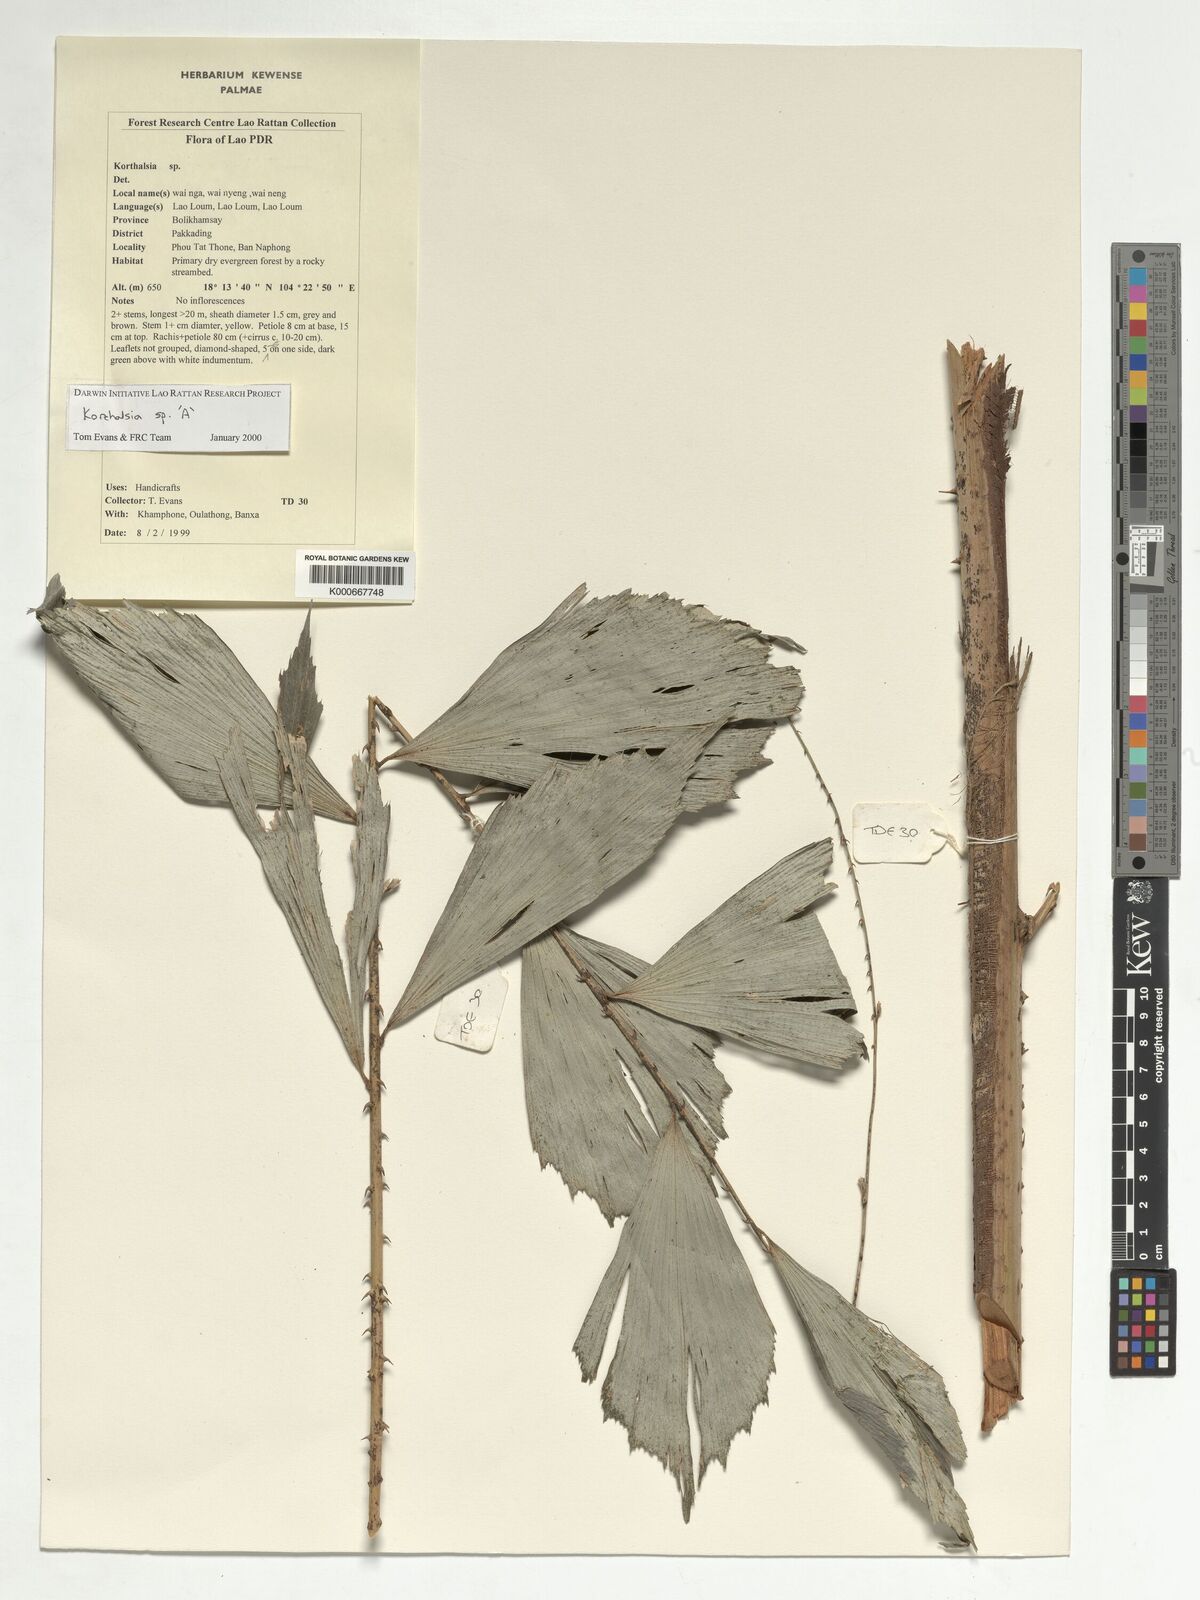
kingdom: Plantae
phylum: Tracheophyta
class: Liliopsida
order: Arecales
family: Arecaceae
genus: Korthalsia
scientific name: Korthalsia
